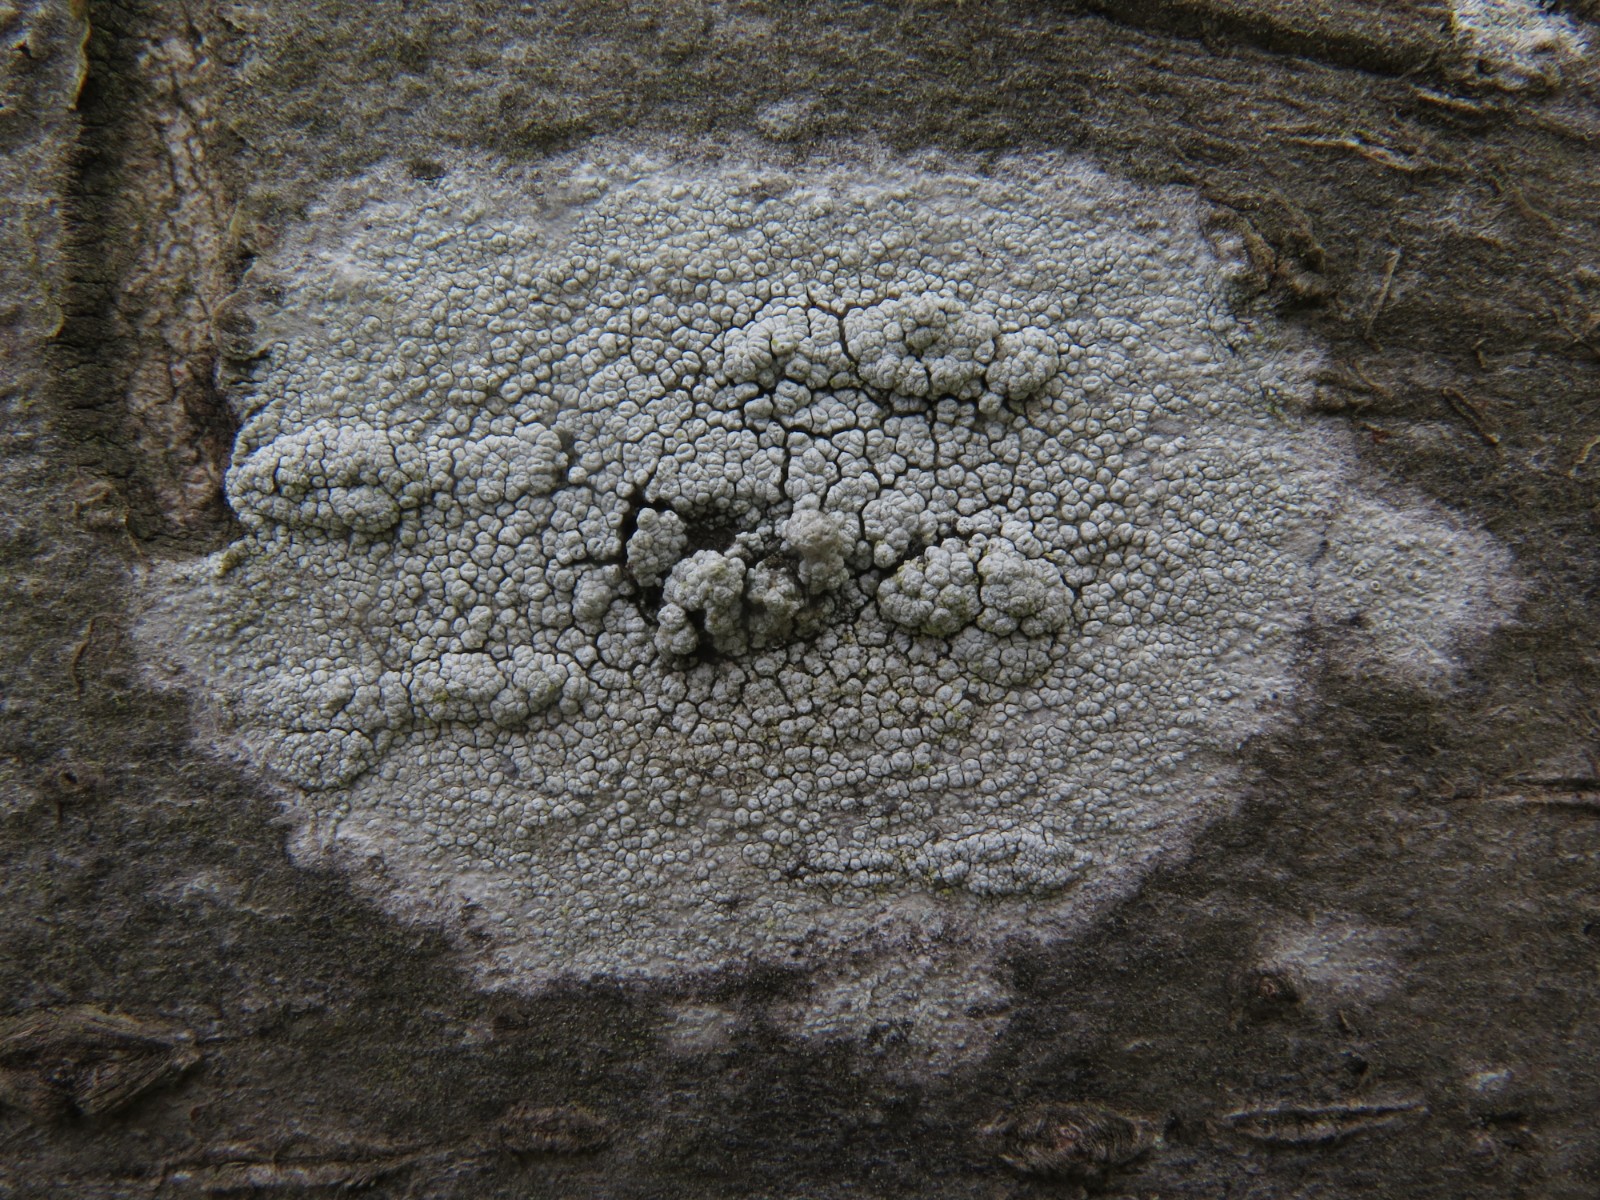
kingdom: Fungi
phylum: Ascomycota
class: Lecanoromycetes
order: Pertusariales
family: Ochrolechiaceae
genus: Ochrolechia
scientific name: Ochrolechia parella
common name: almindelig blegskivelav
